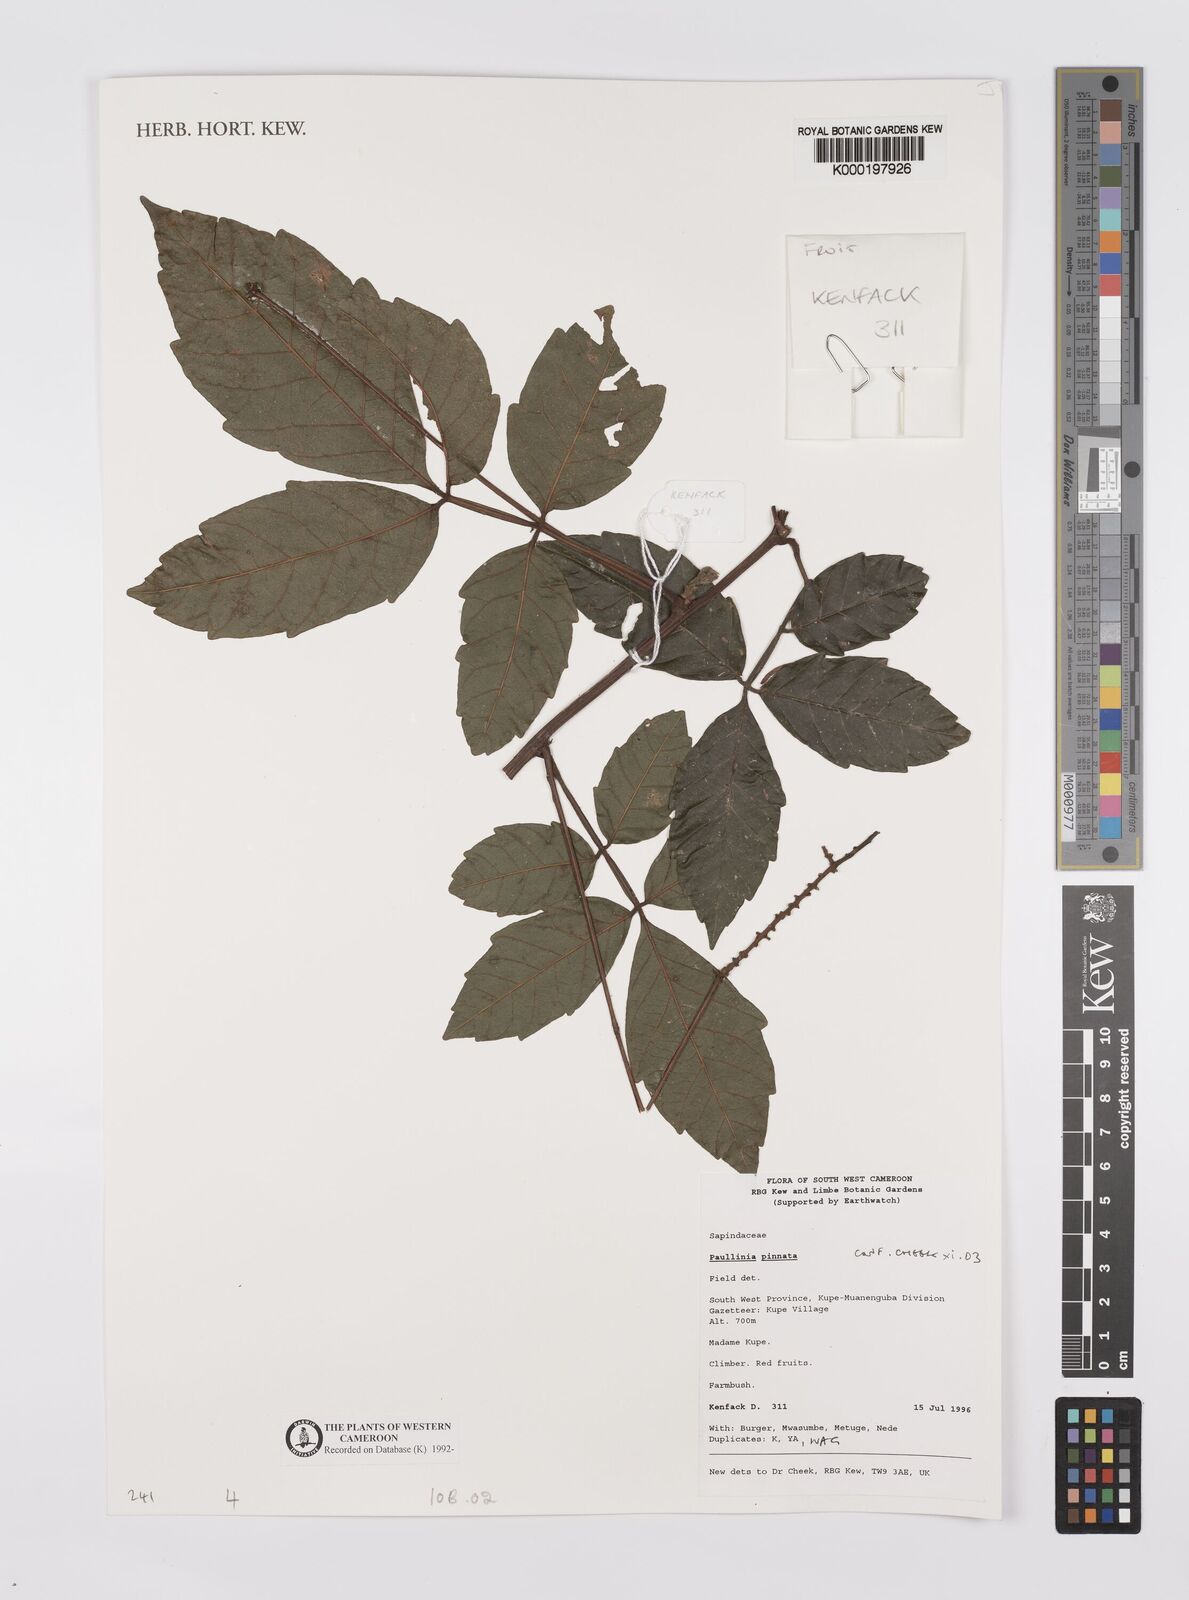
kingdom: Plantae
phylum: Tracheophyta
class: Magnoliopsida
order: Sapindales
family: Sapindaceae
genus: Paullinia
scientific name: Paullinia pinnata
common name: Barbasco
